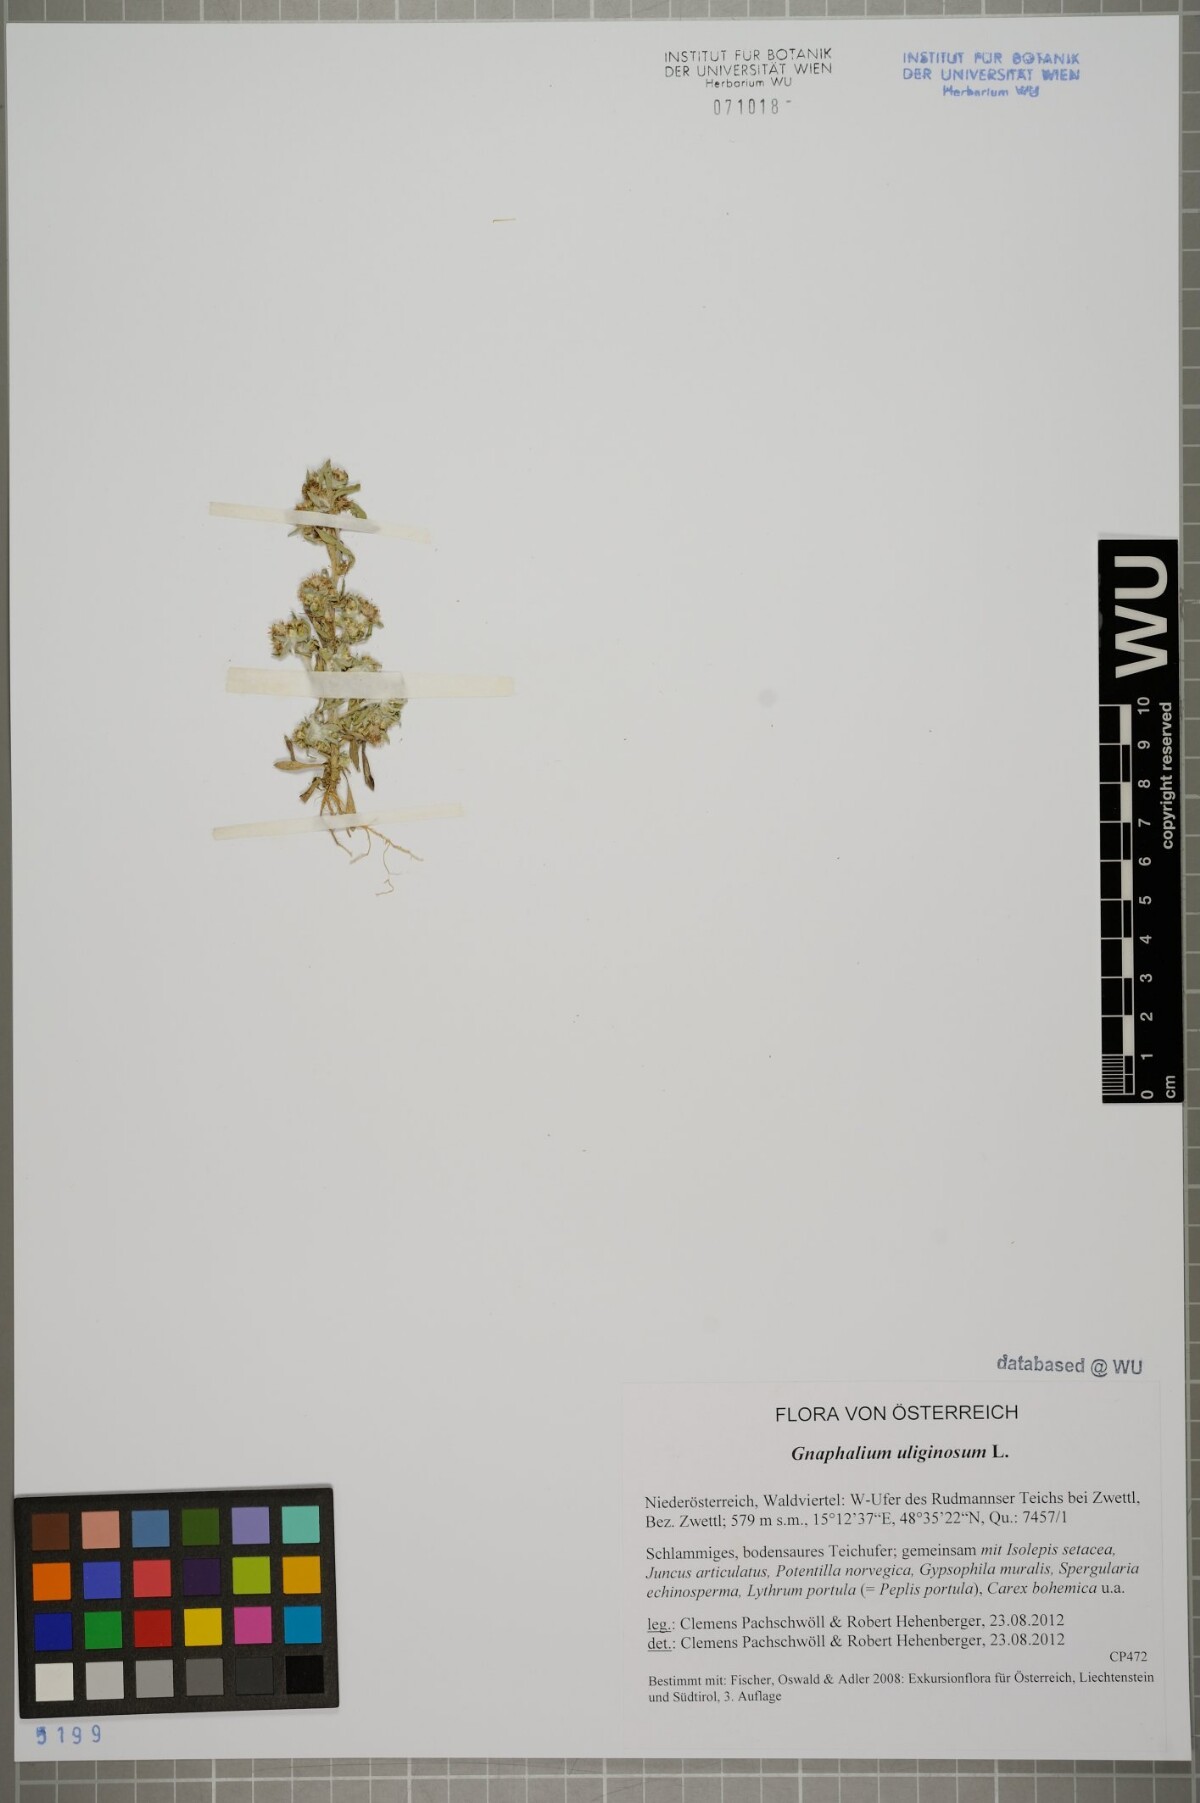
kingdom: Plantae
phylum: Tracheophyta
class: Magnoliopsida
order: Asterales
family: Asteraceae
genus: Gnaphalium
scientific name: Gnaphalium uliginosum
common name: Marsh cudweed
